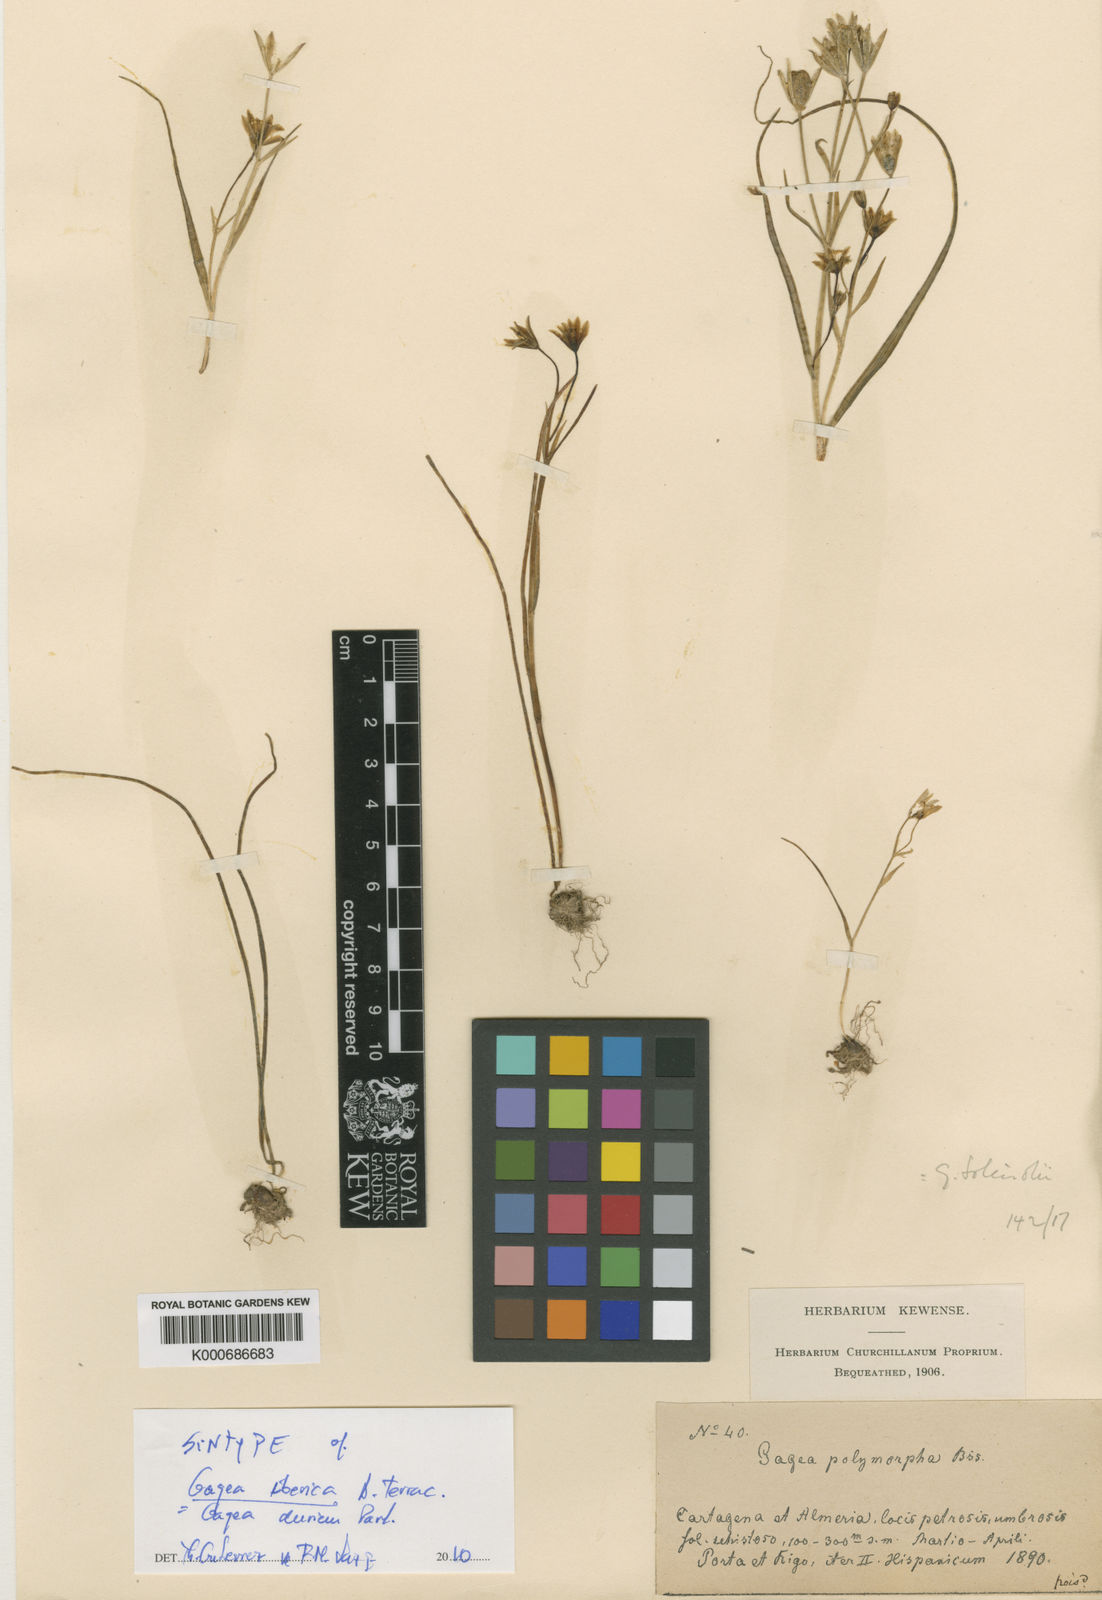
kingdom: Plantae
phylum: Tracheophyta
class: Liliopsida
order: Liliales
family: Liliaceae
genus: Gagea
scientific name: Gagea
